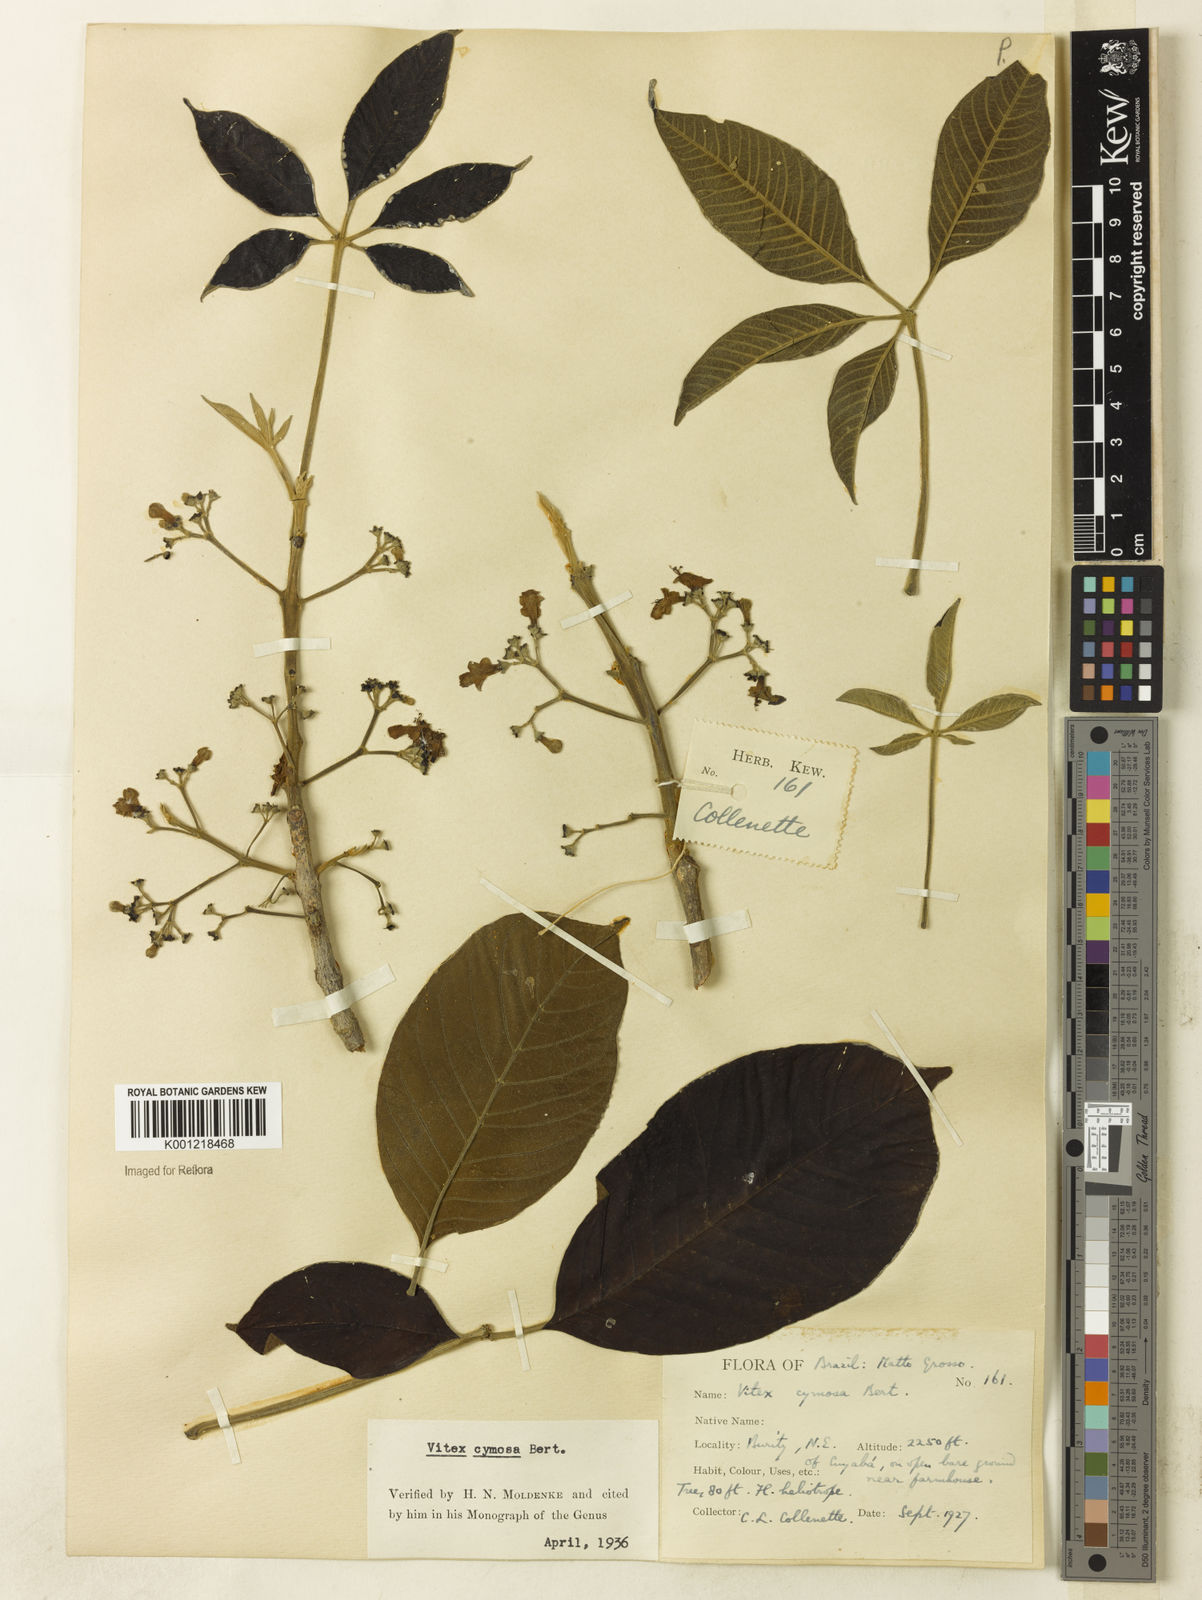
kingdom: Plantae
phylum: Tracheophyta
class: Magnoliopsida
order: Lamiales
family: Lamiaceae
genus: Vitex
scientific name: Vitex cymosa
